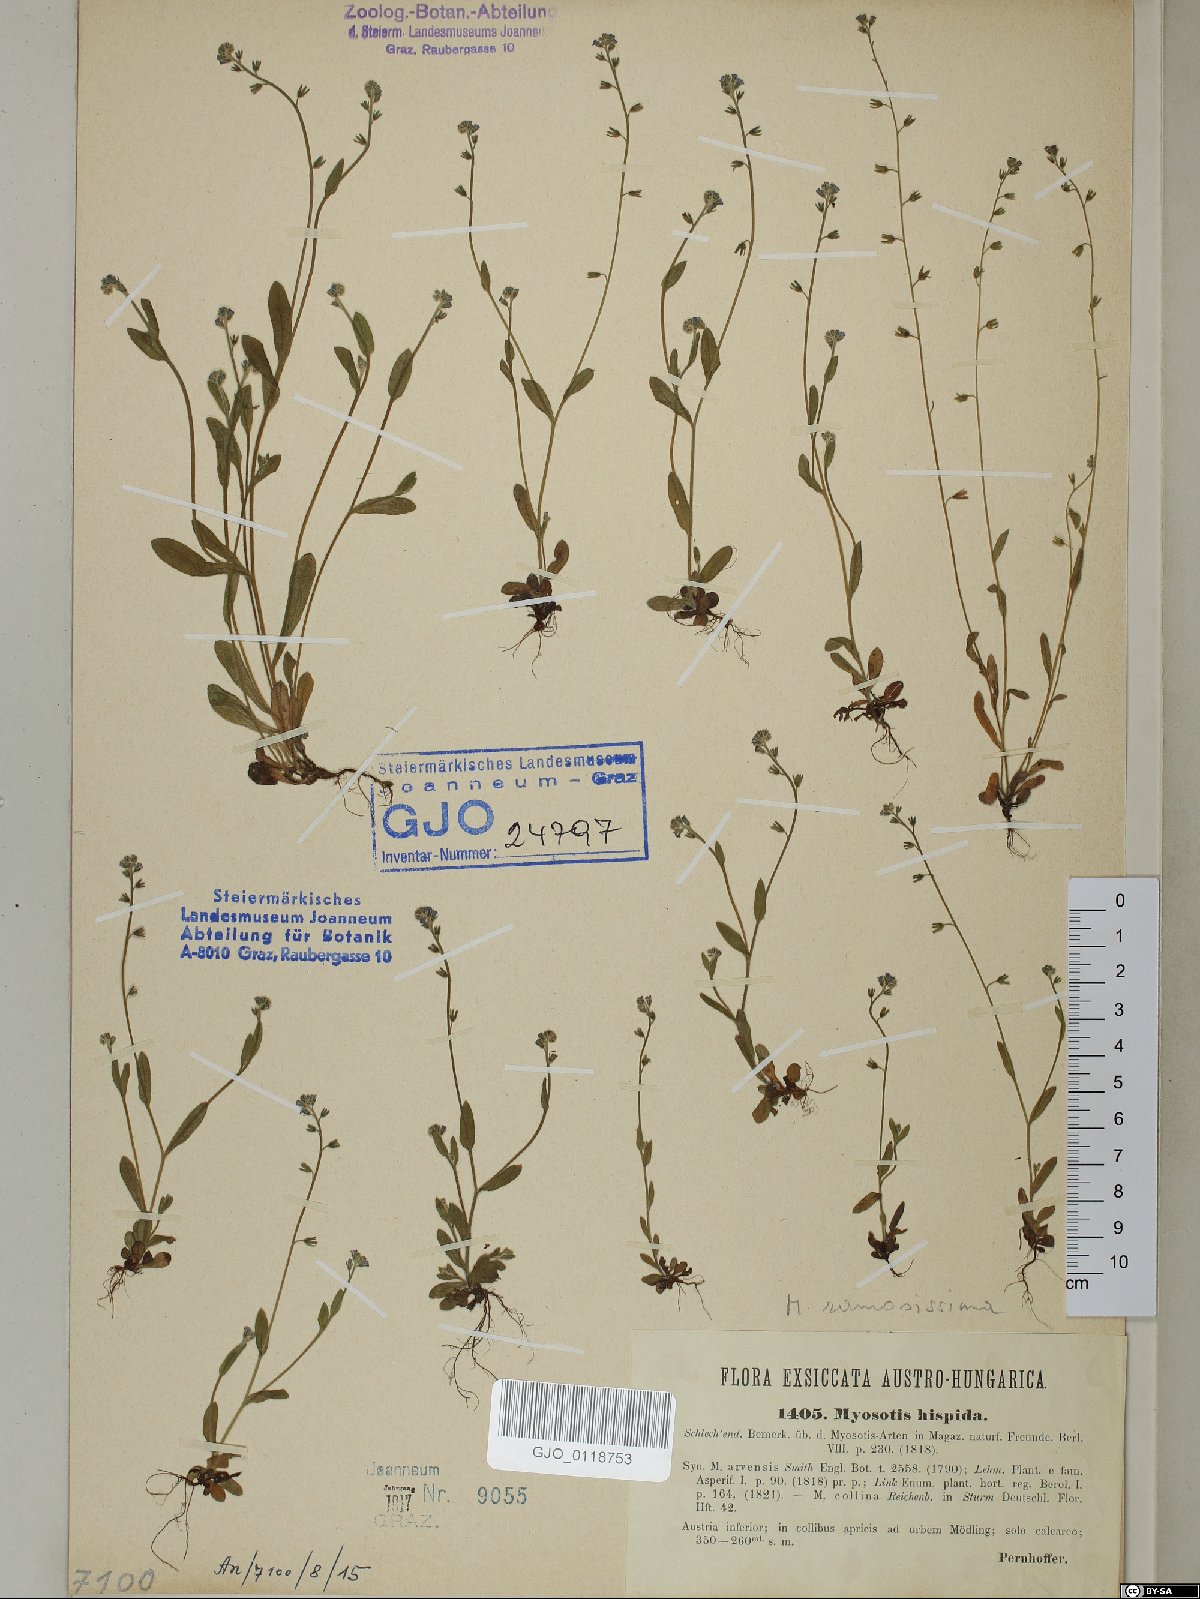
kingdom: Plantae
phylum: Tracheophyta
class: Magnoliopsida
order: Boraginales
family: Boraginaceae
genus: Myosotis
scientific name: Myosotis ramosissima
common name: Early forget-me-not
